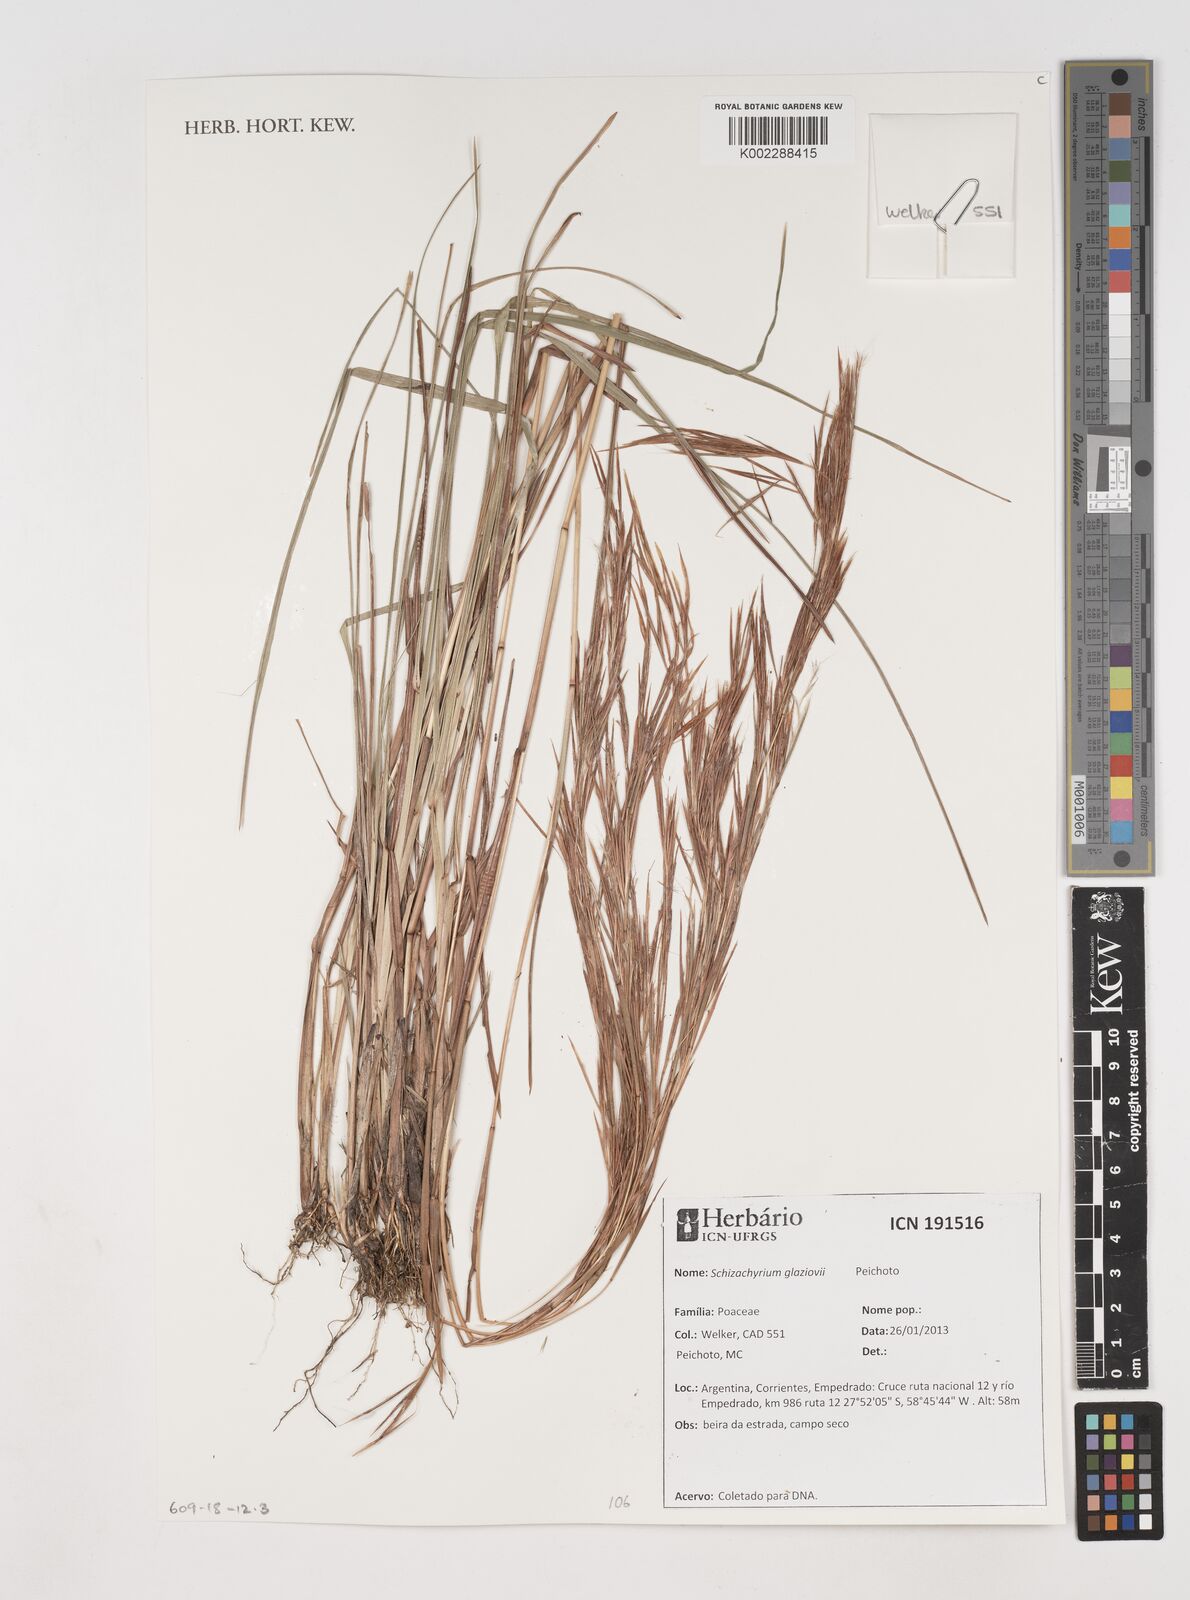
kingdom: Plantae
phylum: Tracheophyta
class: Liliopsida
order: Poales
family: Poaceae
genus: Schizachyrium
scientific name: Schizachyrium glaziovii
